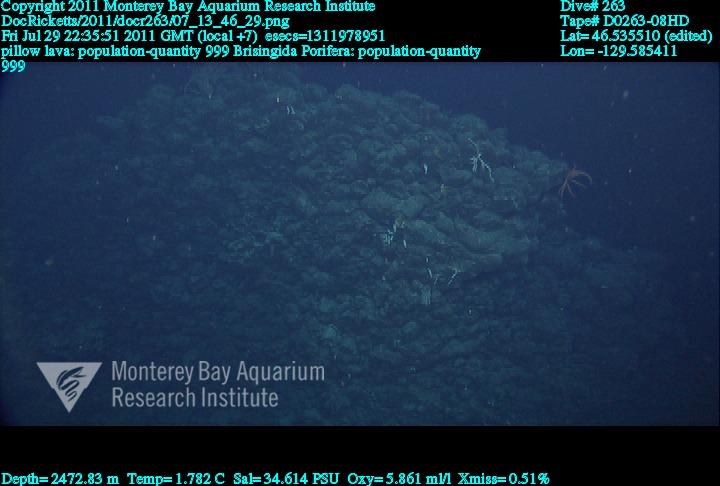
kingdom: Animalia
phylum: Porifera
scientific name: Porifera
